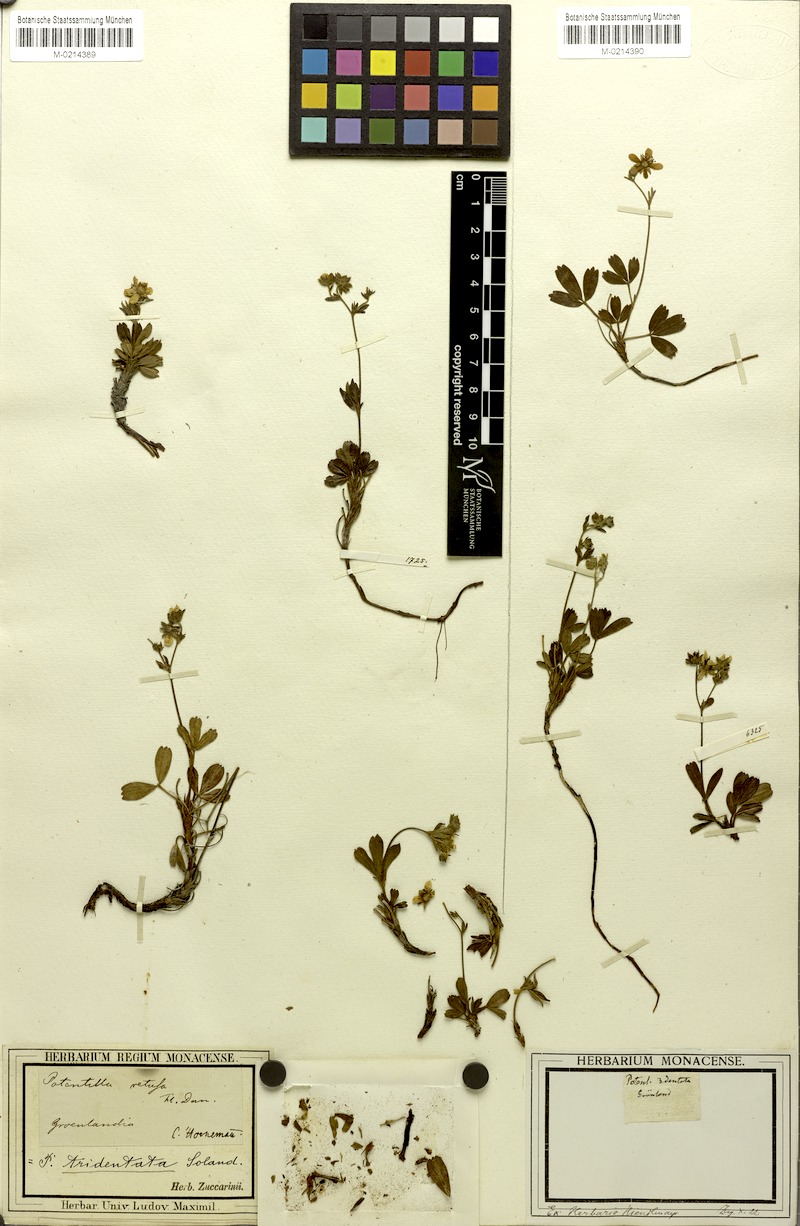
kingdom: Plantae
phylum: Tracheophyta
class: Magnoliopsida
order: Rosales
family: Rosaceae
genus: Sibbaldia
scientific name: Sibbaldia tridentata
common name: Three-toothed cinquefoil
